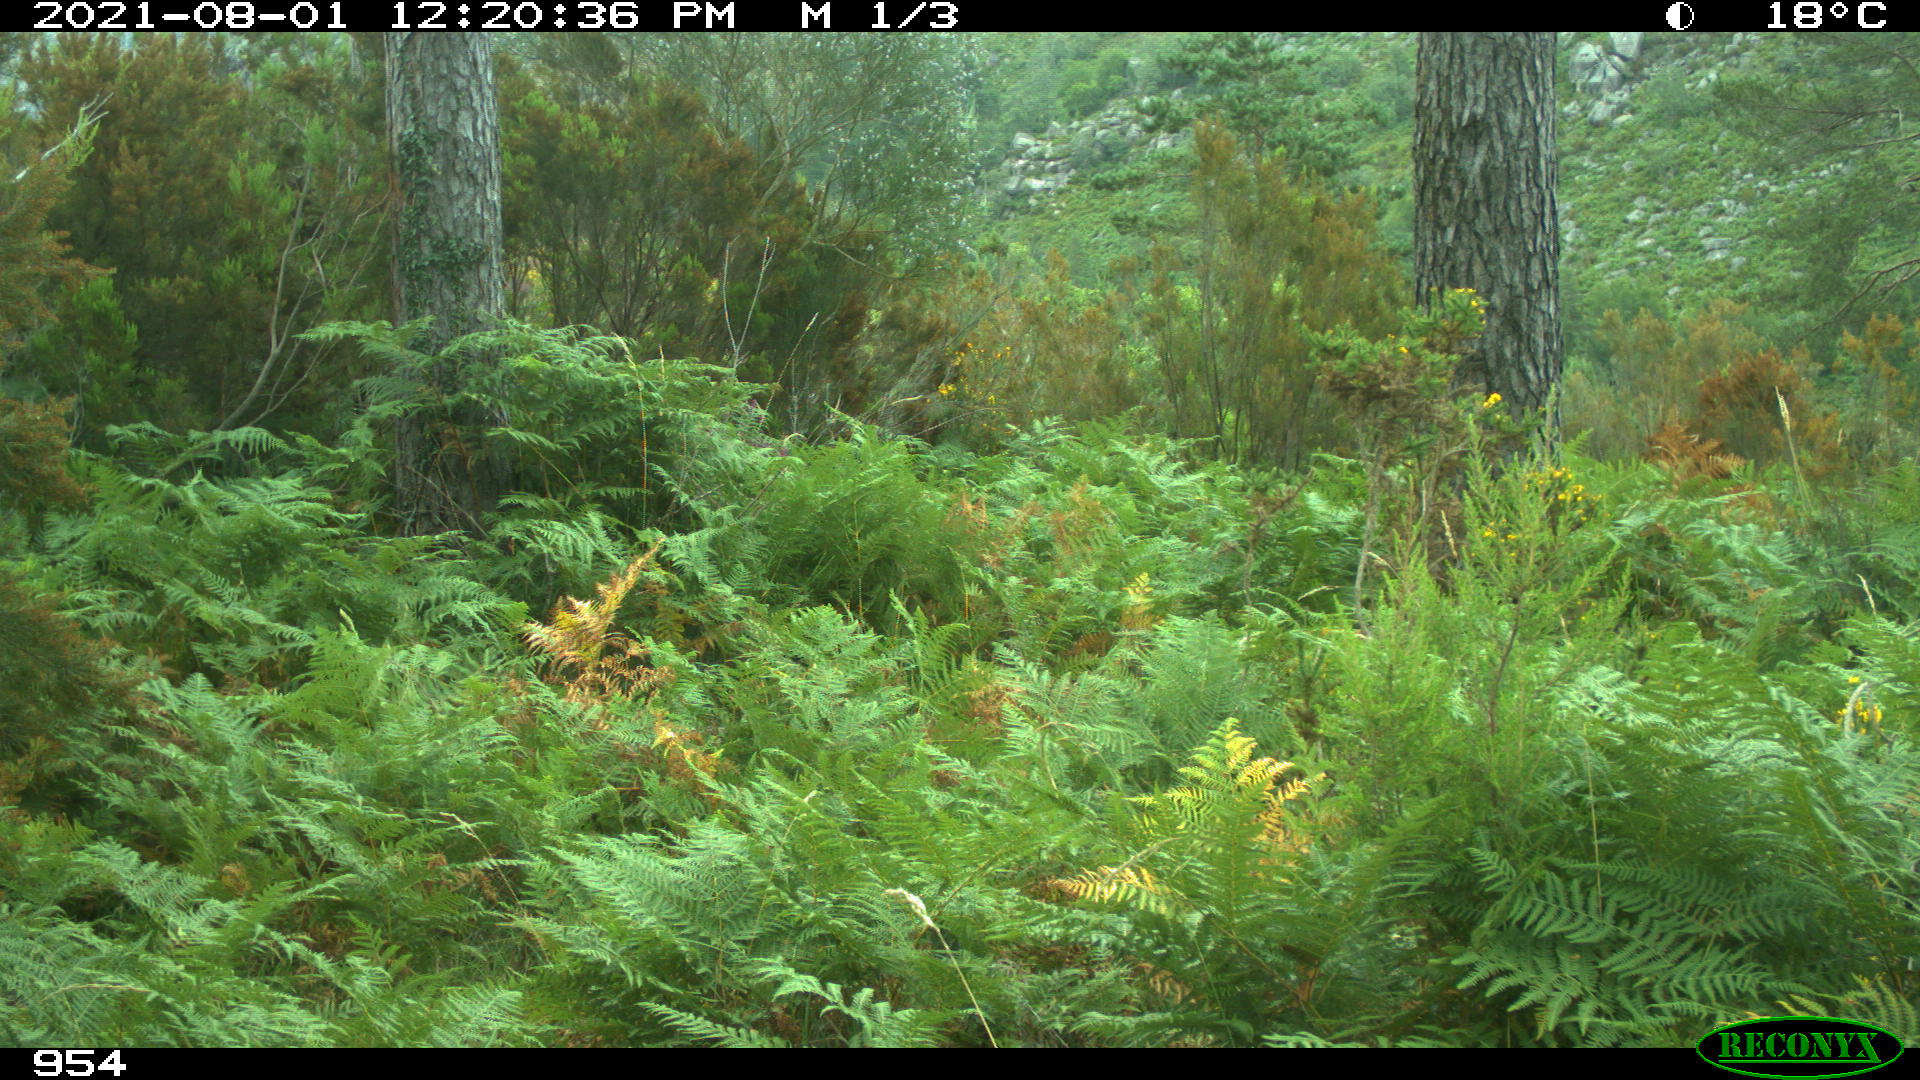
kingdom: Animalia
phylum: Chordata
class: Mammalia
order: Artiodactyla
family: Cervidae
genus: Capreolus
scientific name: Capreolus capreolus
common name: Western roe deer
